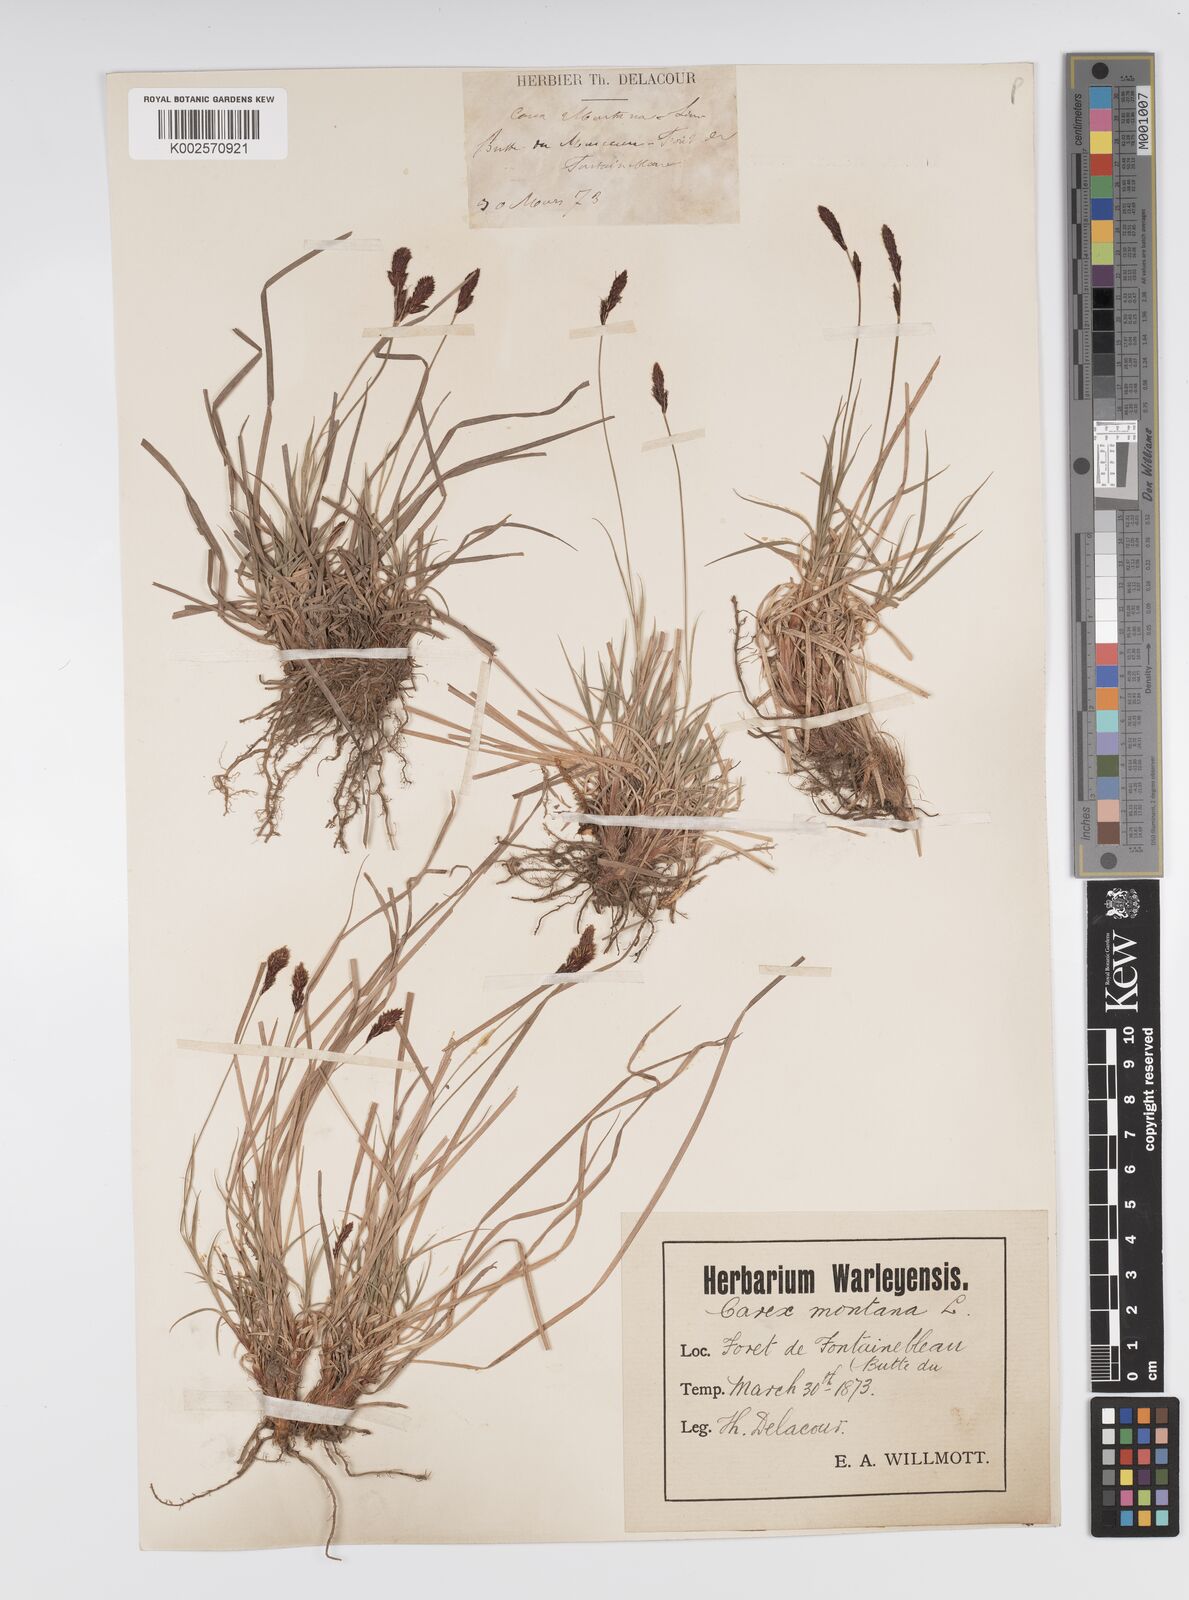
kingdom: Plantae
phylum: Tracheophyta
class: Liliopsida
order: Poales
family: Cyperaceae
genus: Carex
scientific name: Carex montana
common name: Soft-leaved sedge
